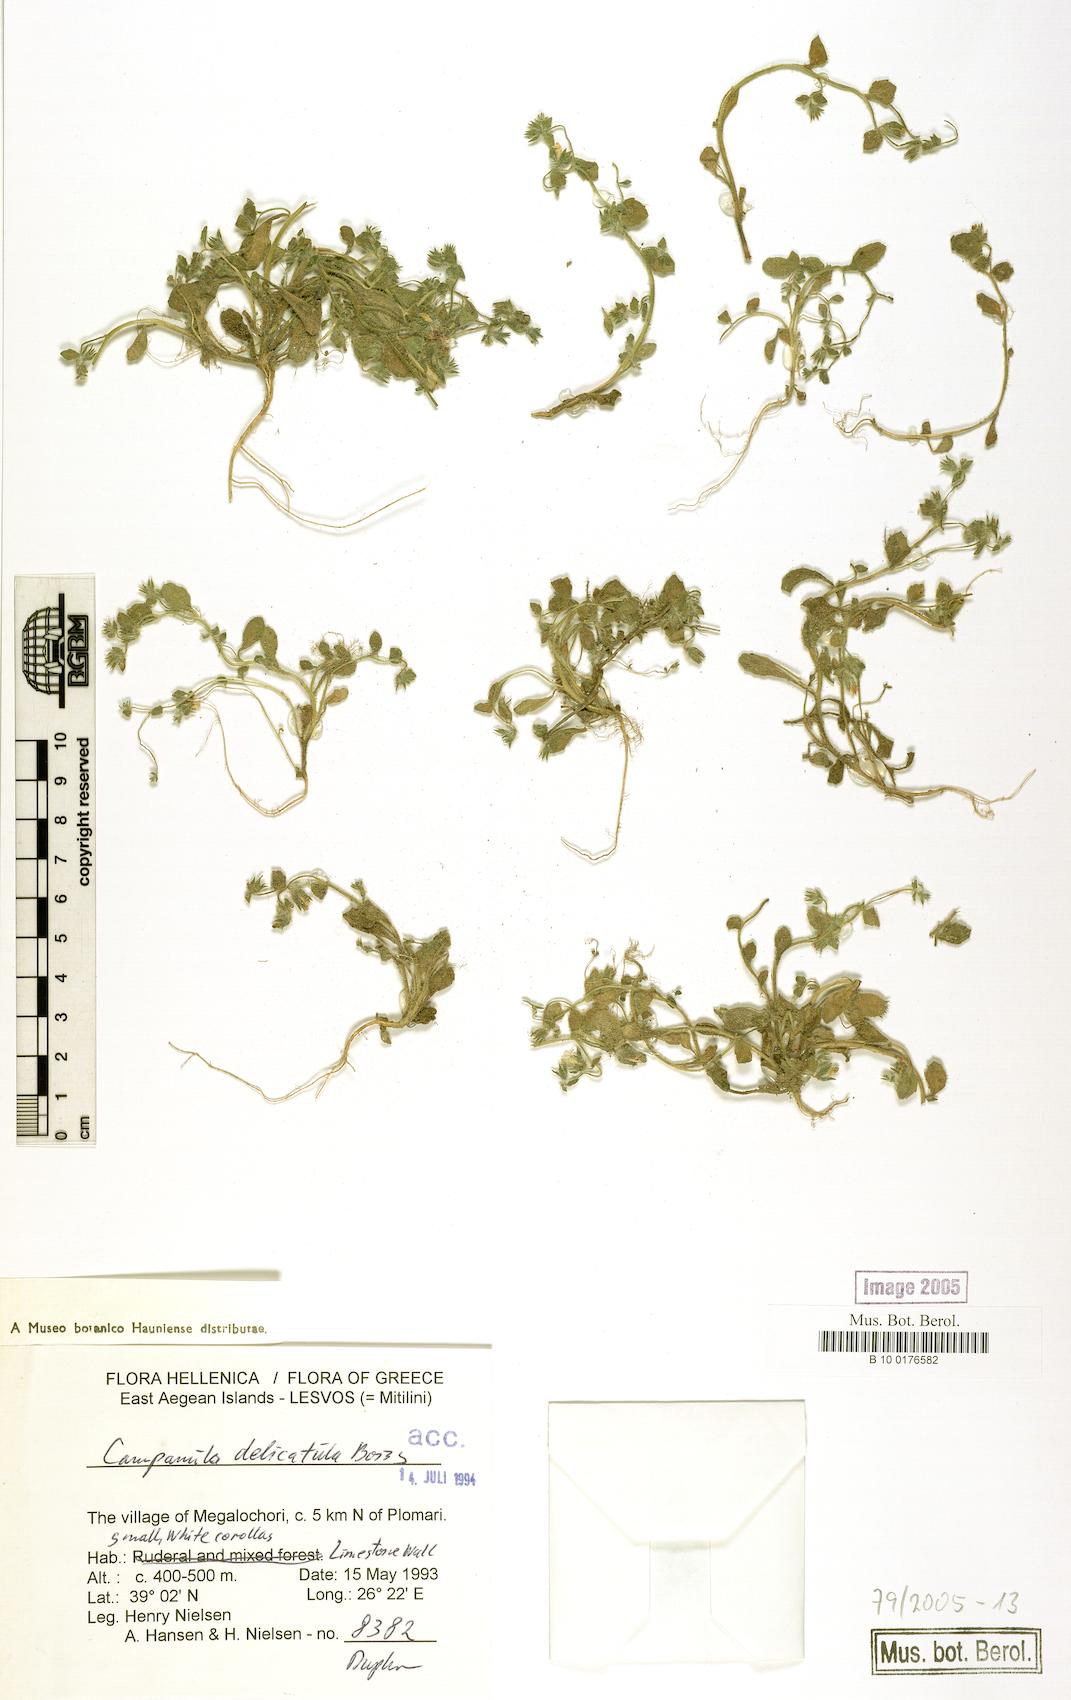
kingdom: Plantae
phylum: Tracheophyta
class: Magnoliopsida
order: Asterales
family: Campanulaceae
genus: Campanula
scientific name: Campanula delicatula
